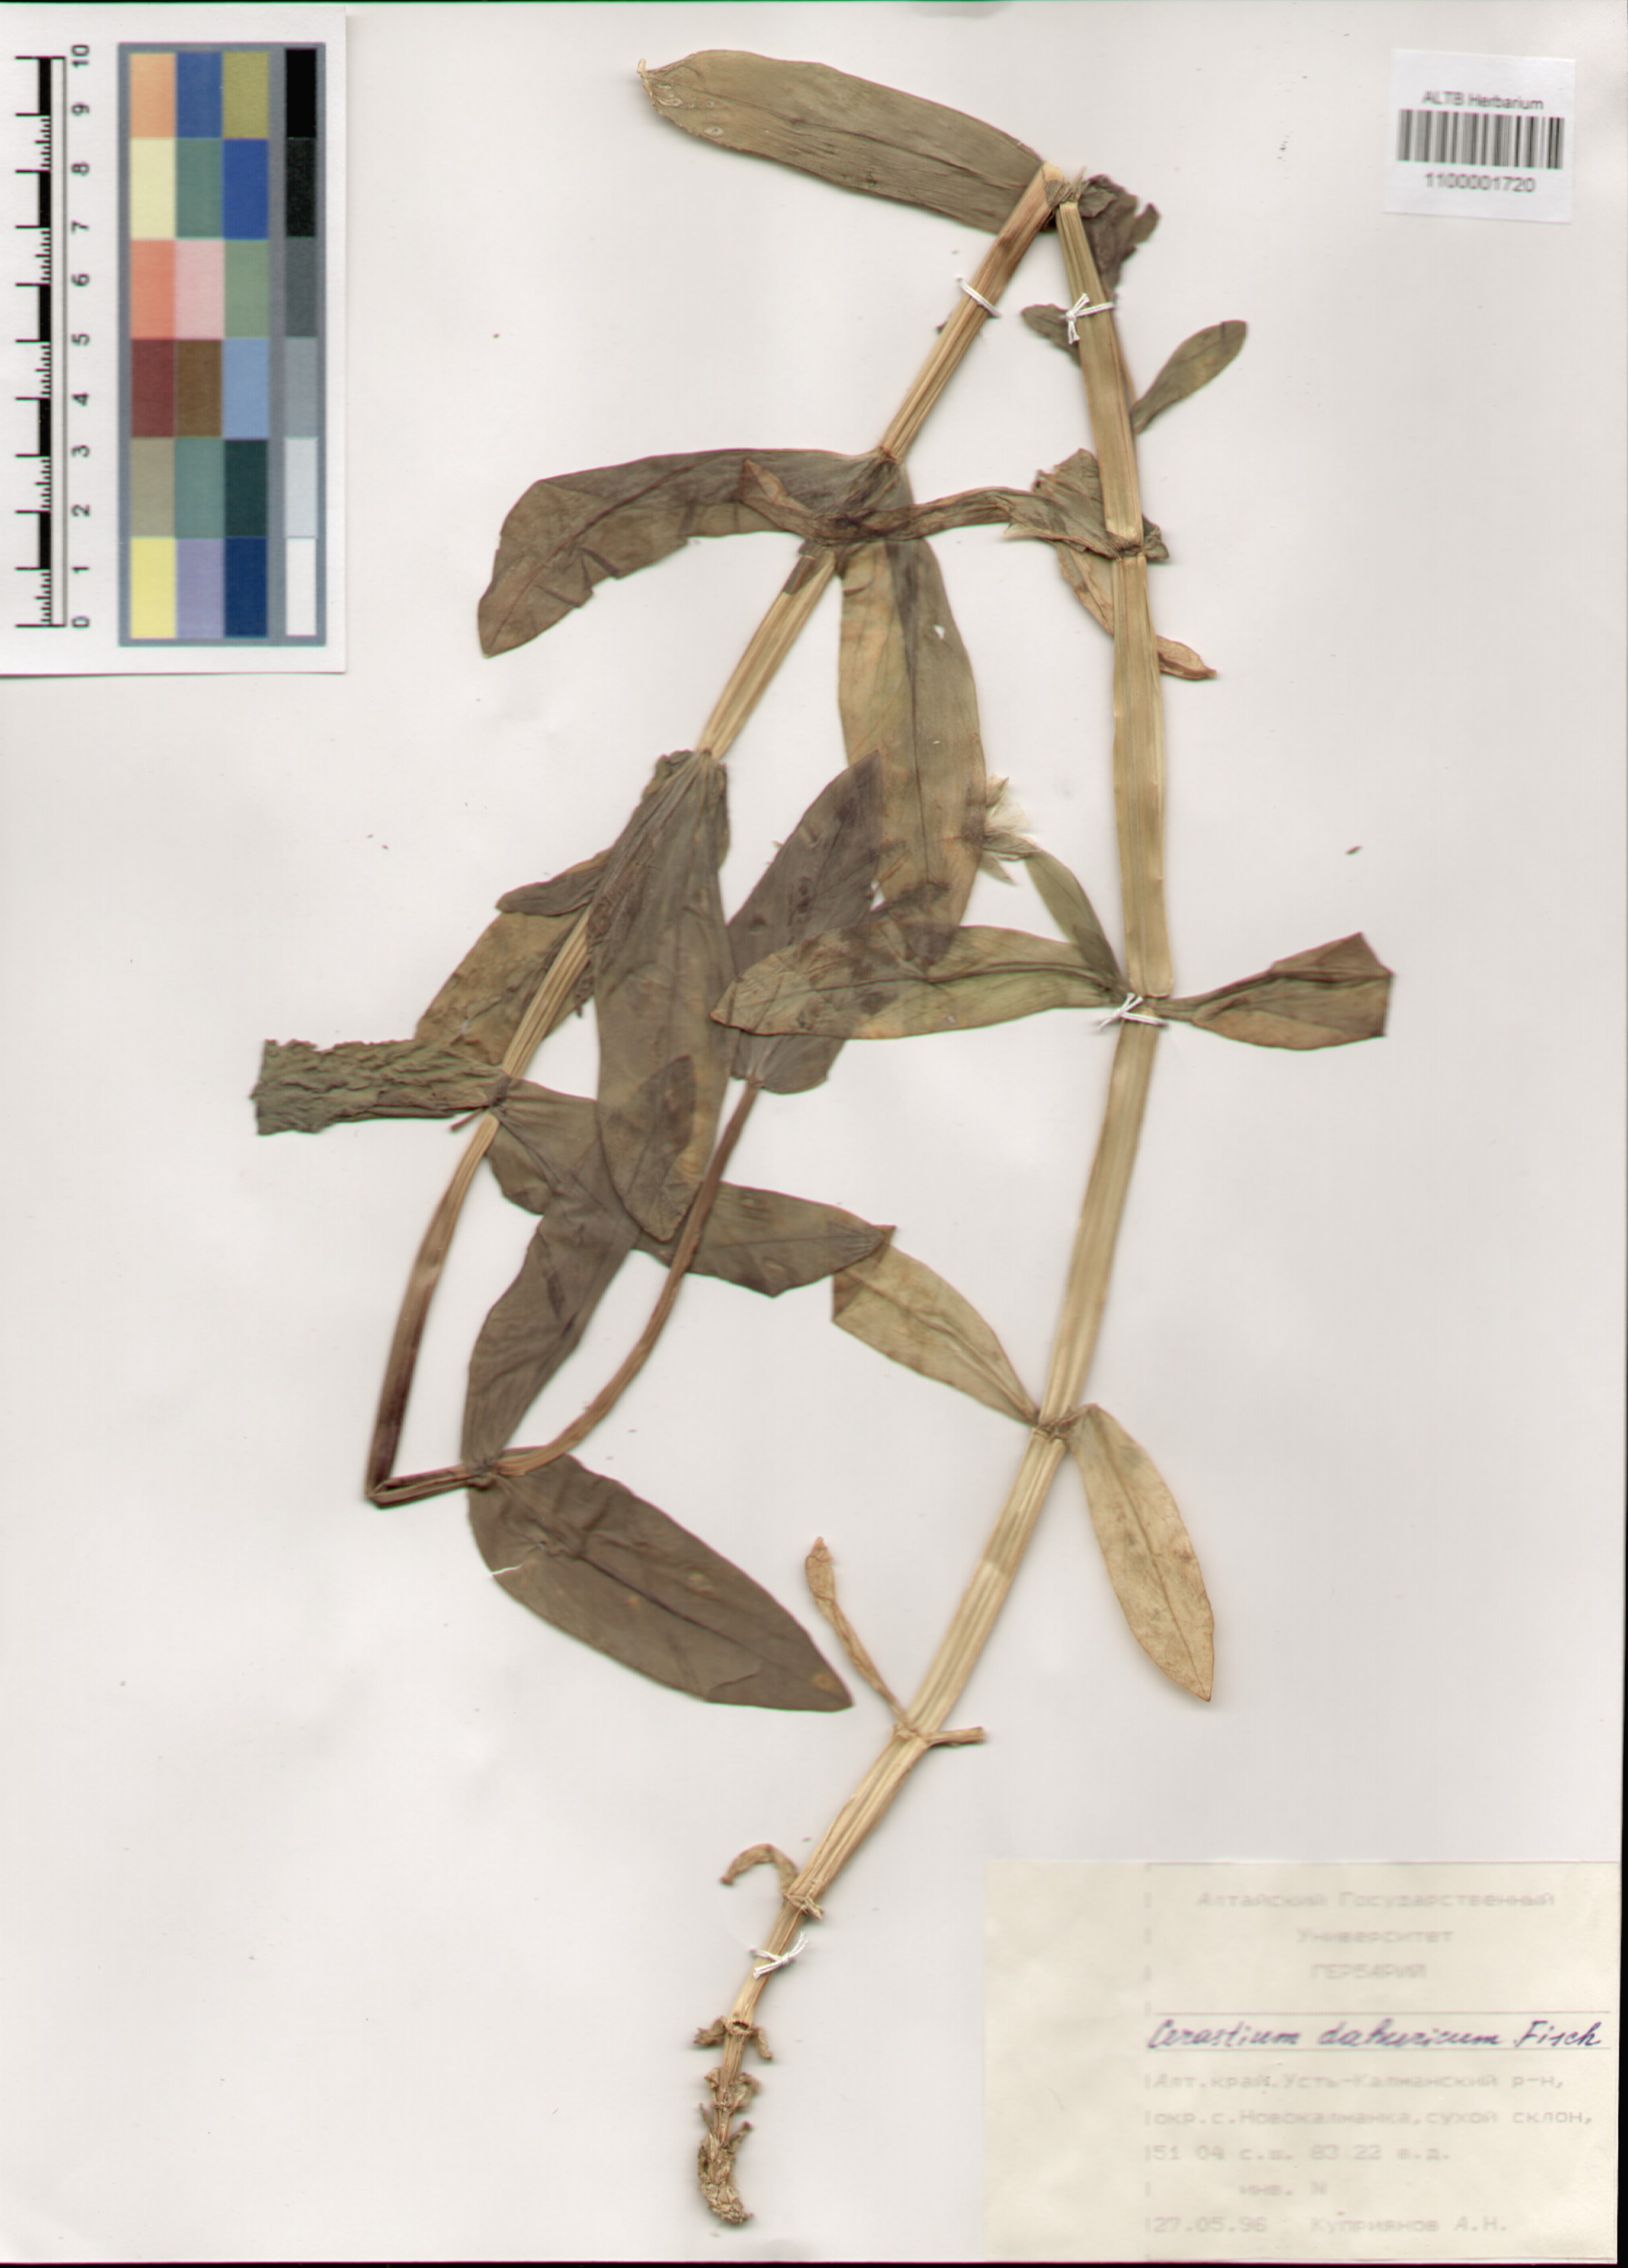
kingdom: Plantae
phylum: Tracheophyta
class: Magnoliopsida
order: Caryophyllales
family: Caryophyllaceae
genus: Dichodon
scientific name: Dichodon davuricum
